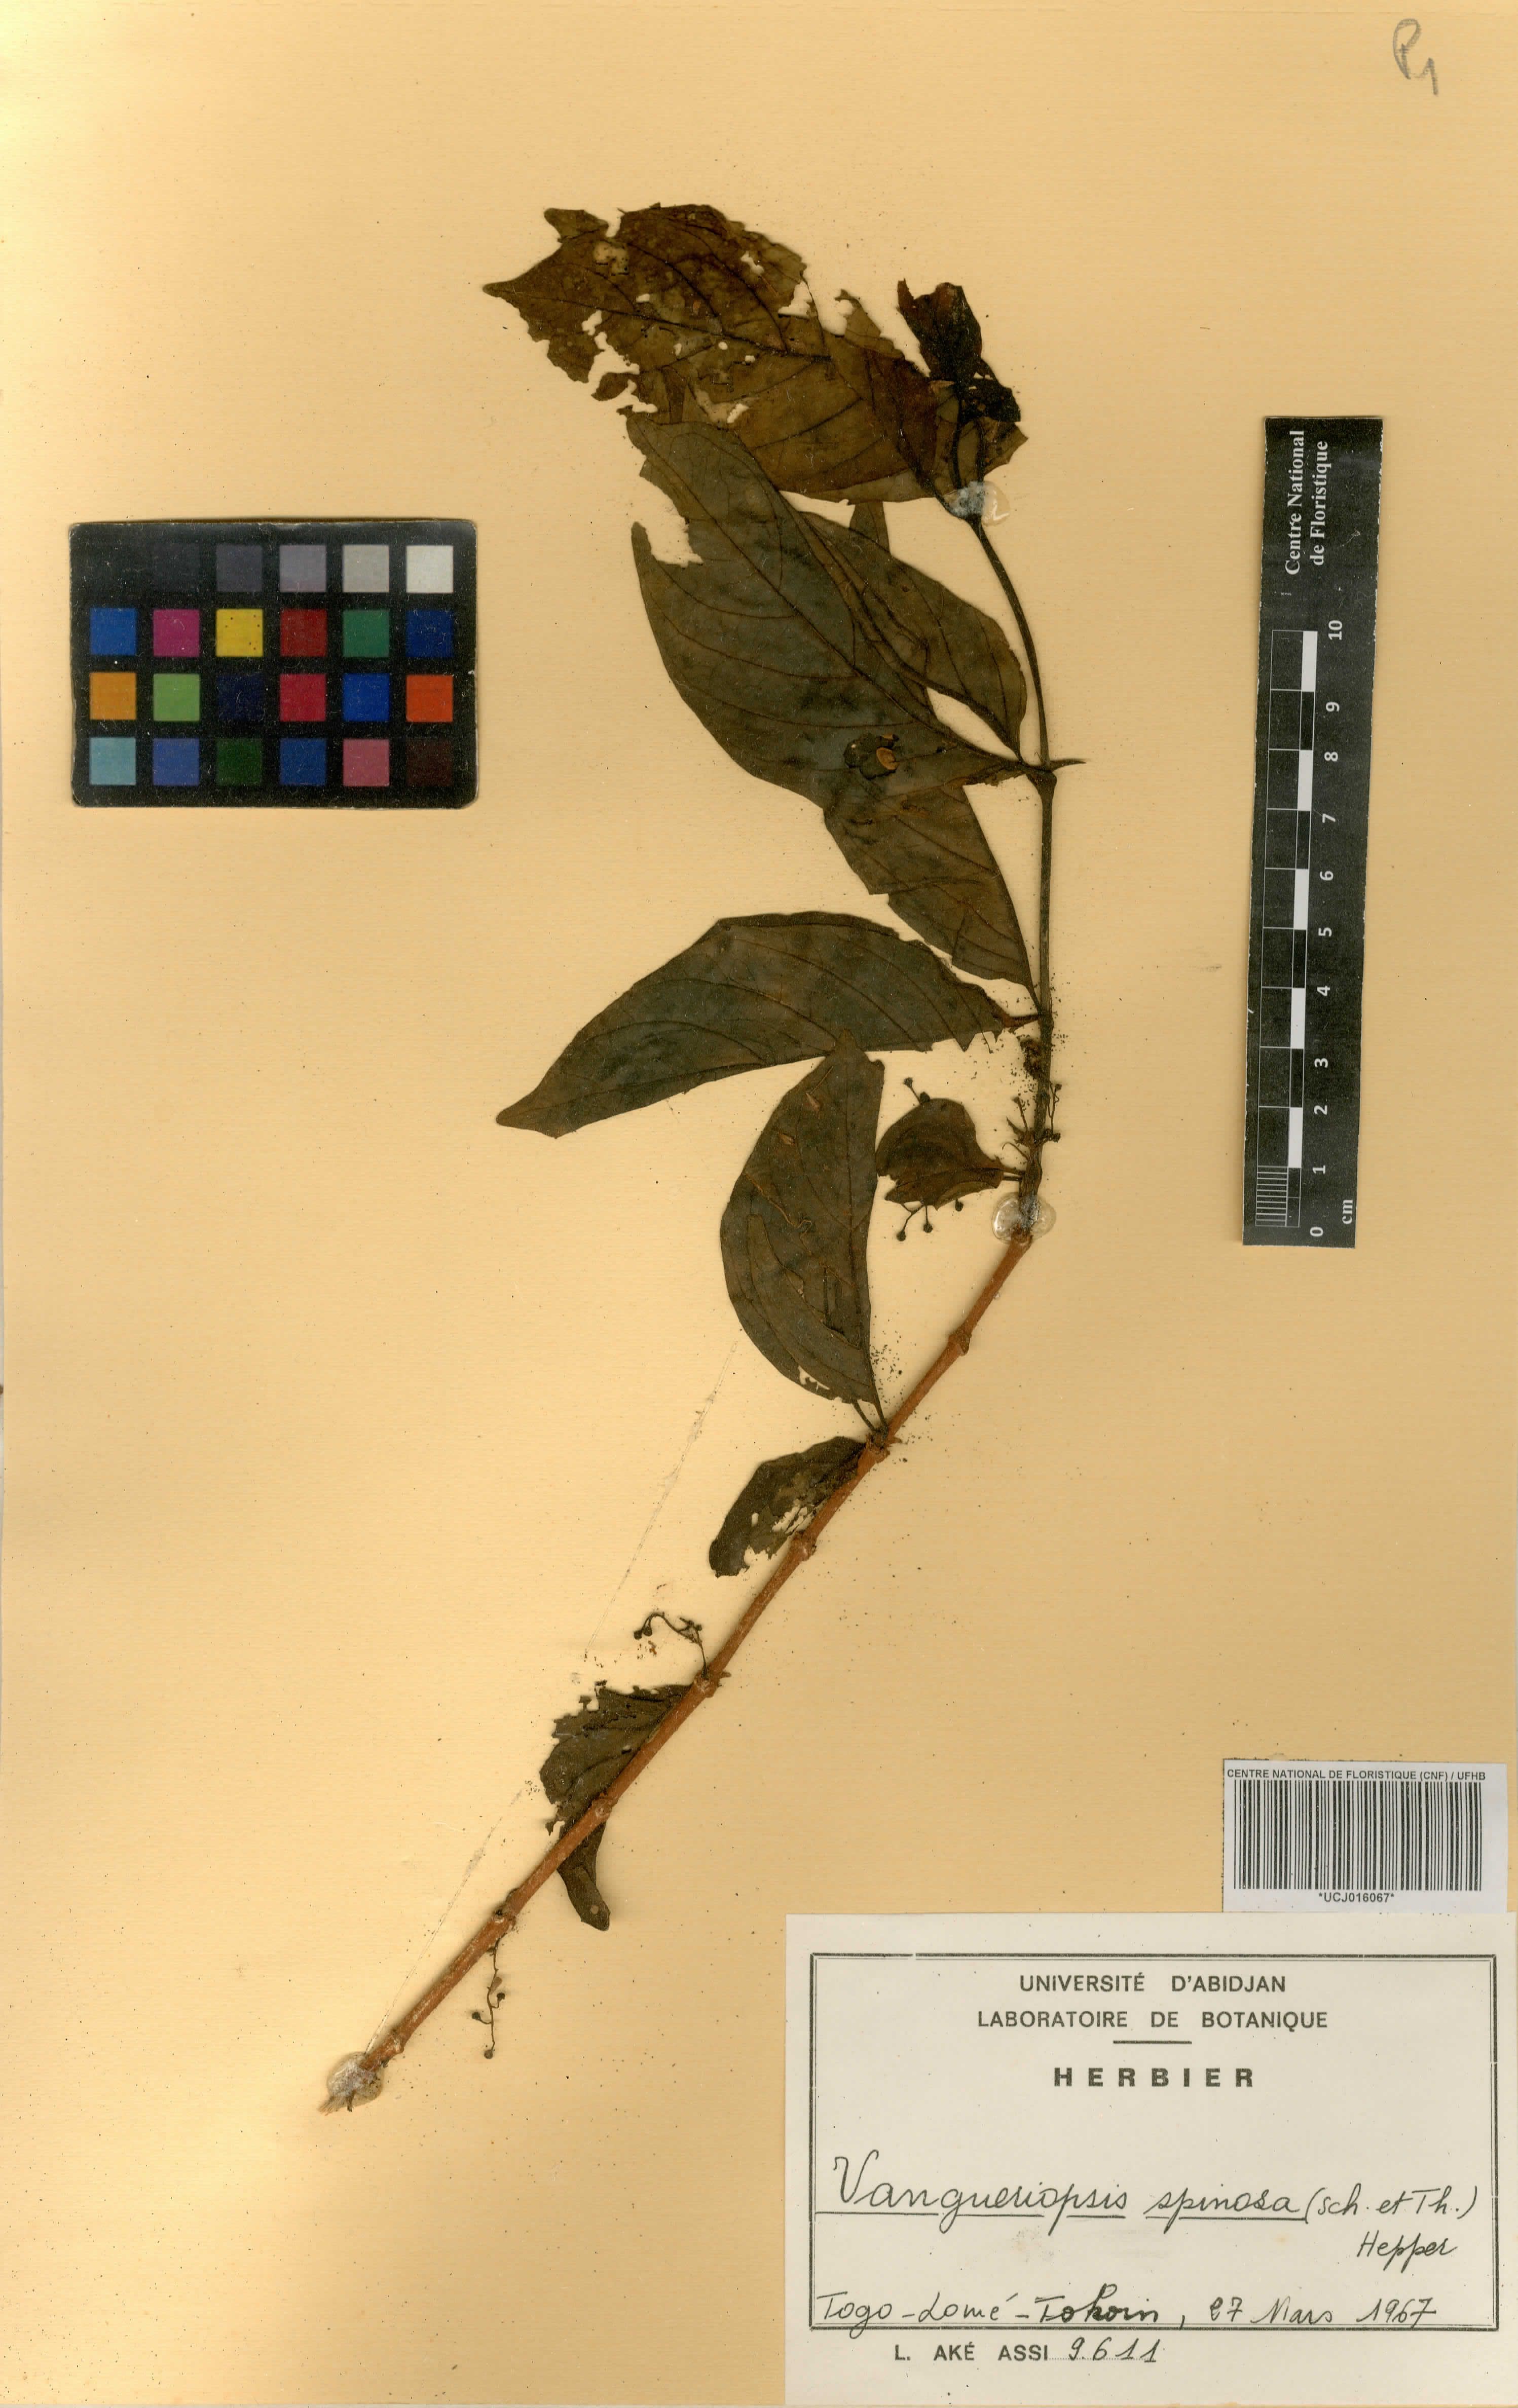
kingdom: Plantae
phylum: Tracheophyta
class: Magnoliopsida
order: Gentianales
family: Rubiaceae
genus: Vangueriella
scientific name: Vangueriella spinosa
